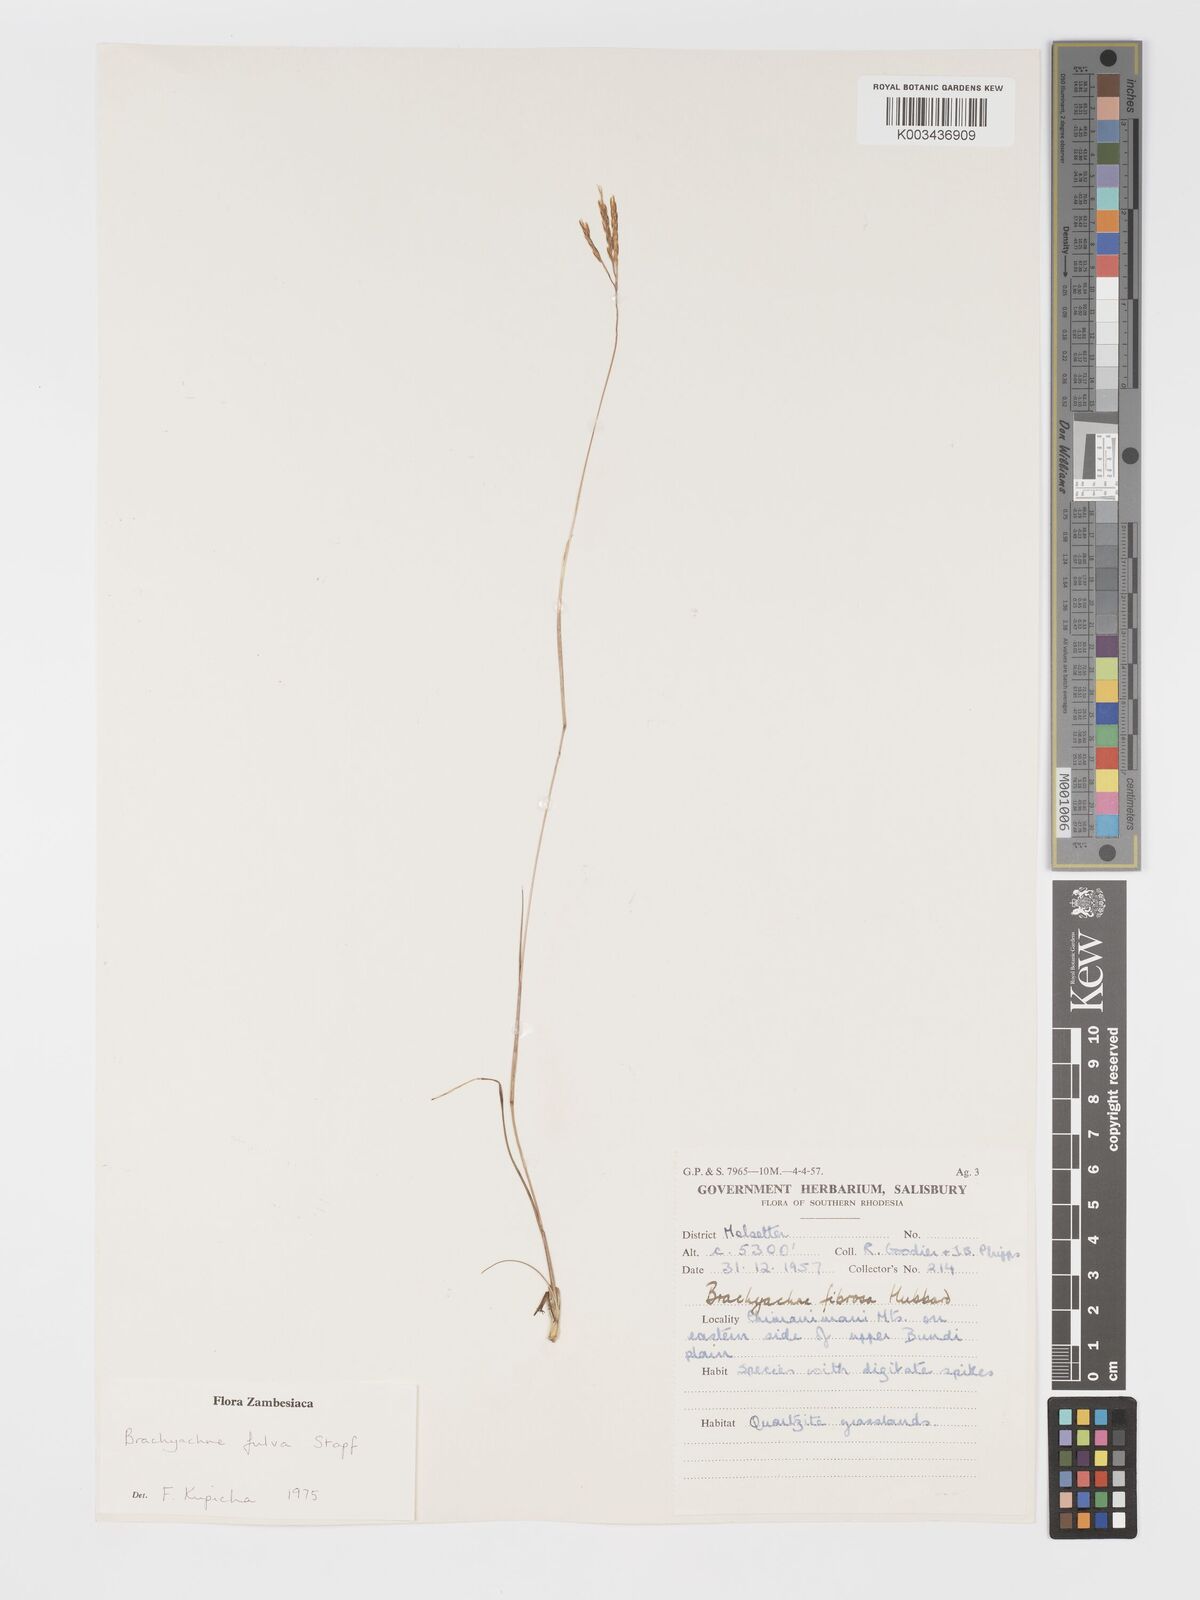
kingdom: Plantae
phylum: Tracheophyta
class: Liliopsida
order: Poales
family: Poaceae
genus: Micrachne
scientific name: Micrachne fulva
